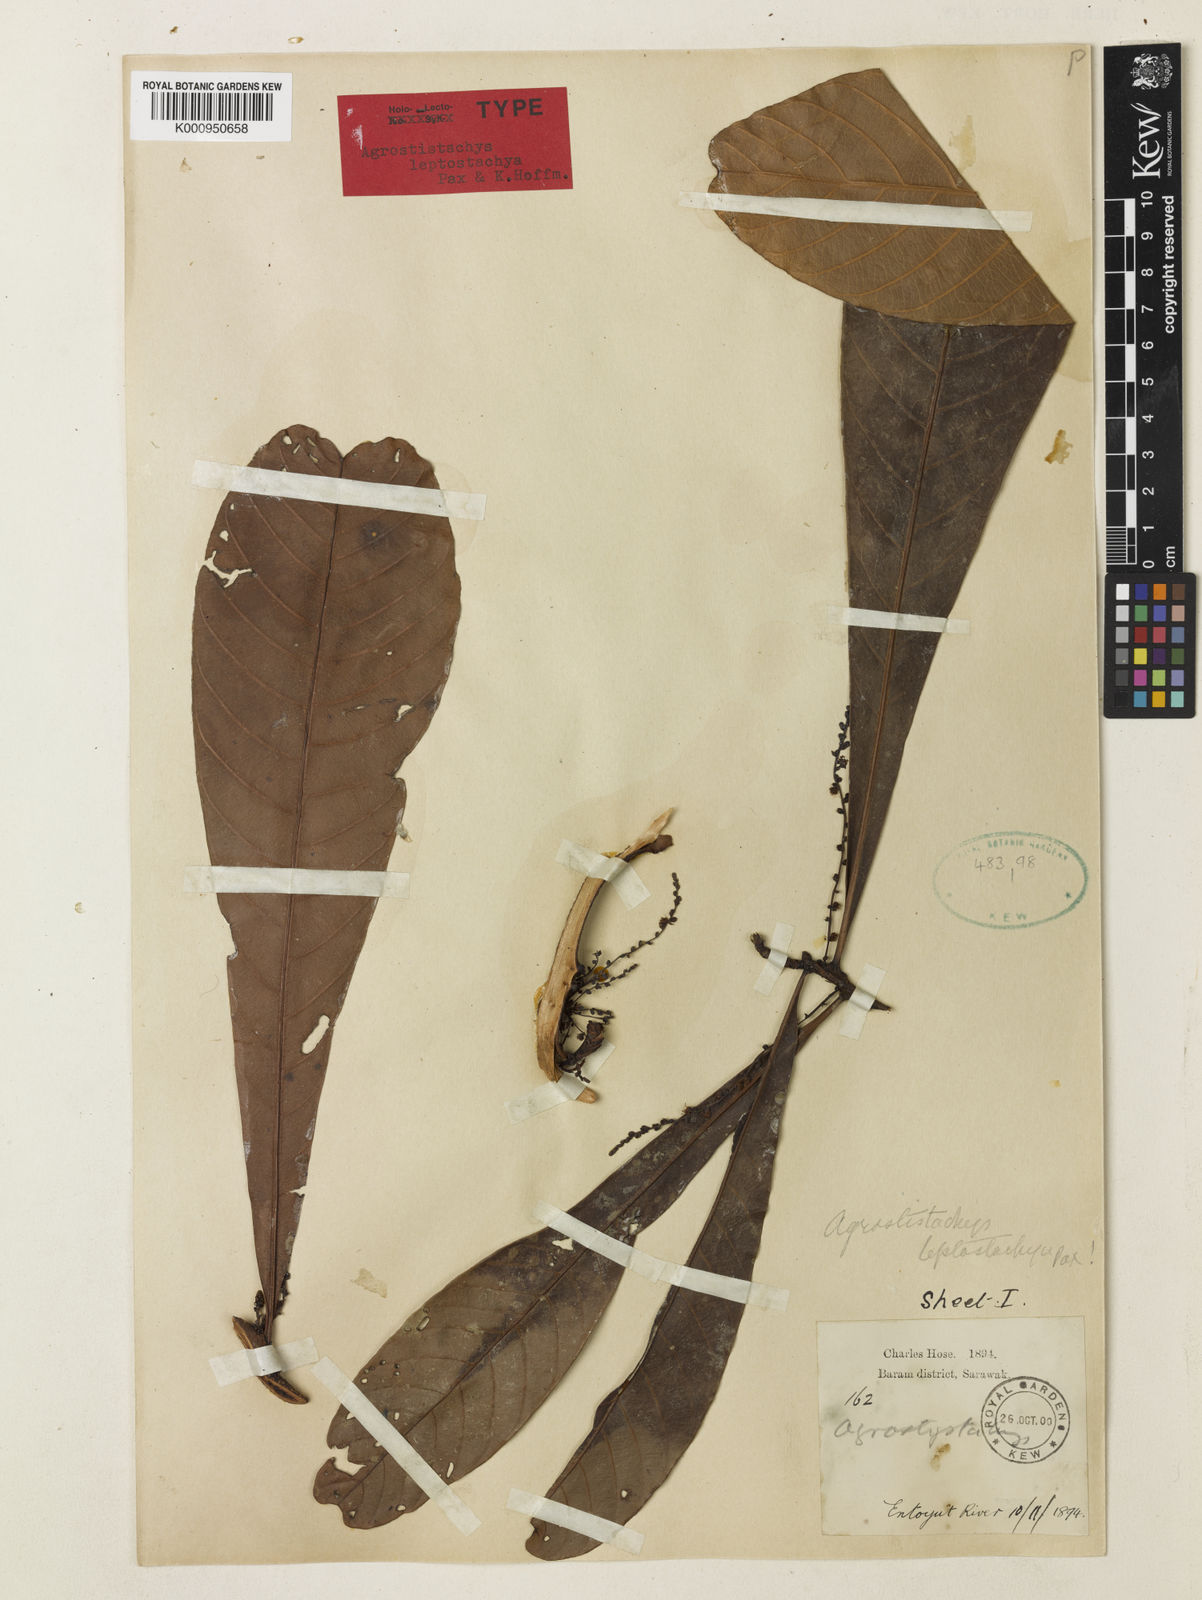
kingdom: Plantae
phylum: Tracheophyta
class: Magnoliopsida
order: Malpighiales
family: Euphorbiaceae
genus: Agrostistachys
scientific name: Agrostistachys
